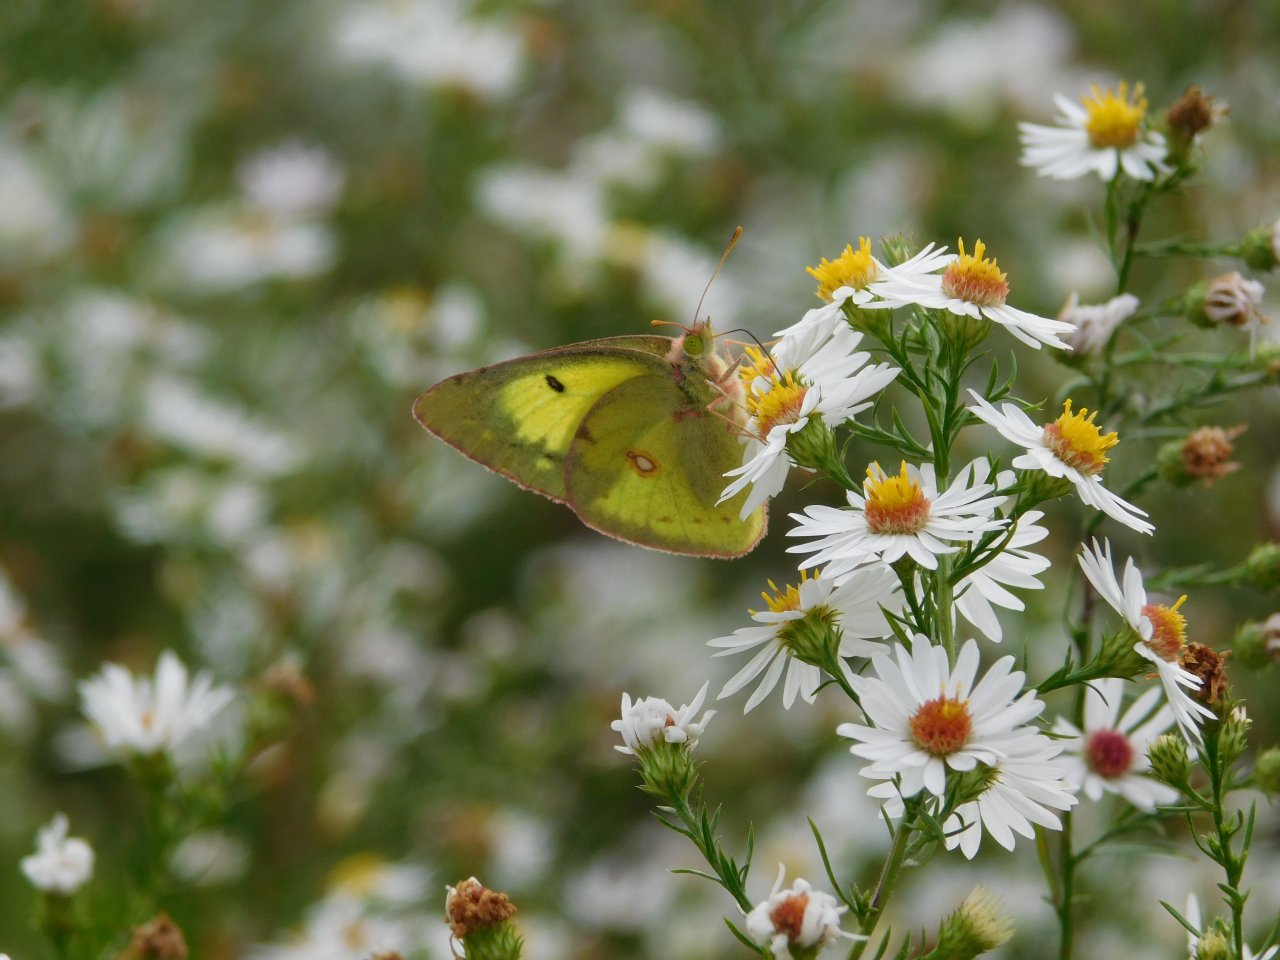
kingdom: Animalia
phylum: Arthropoda
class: Insecta
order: Lepidoptera
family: Pieridae
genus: Colias
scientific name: Colias philodice
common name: Clouded Sulphur
